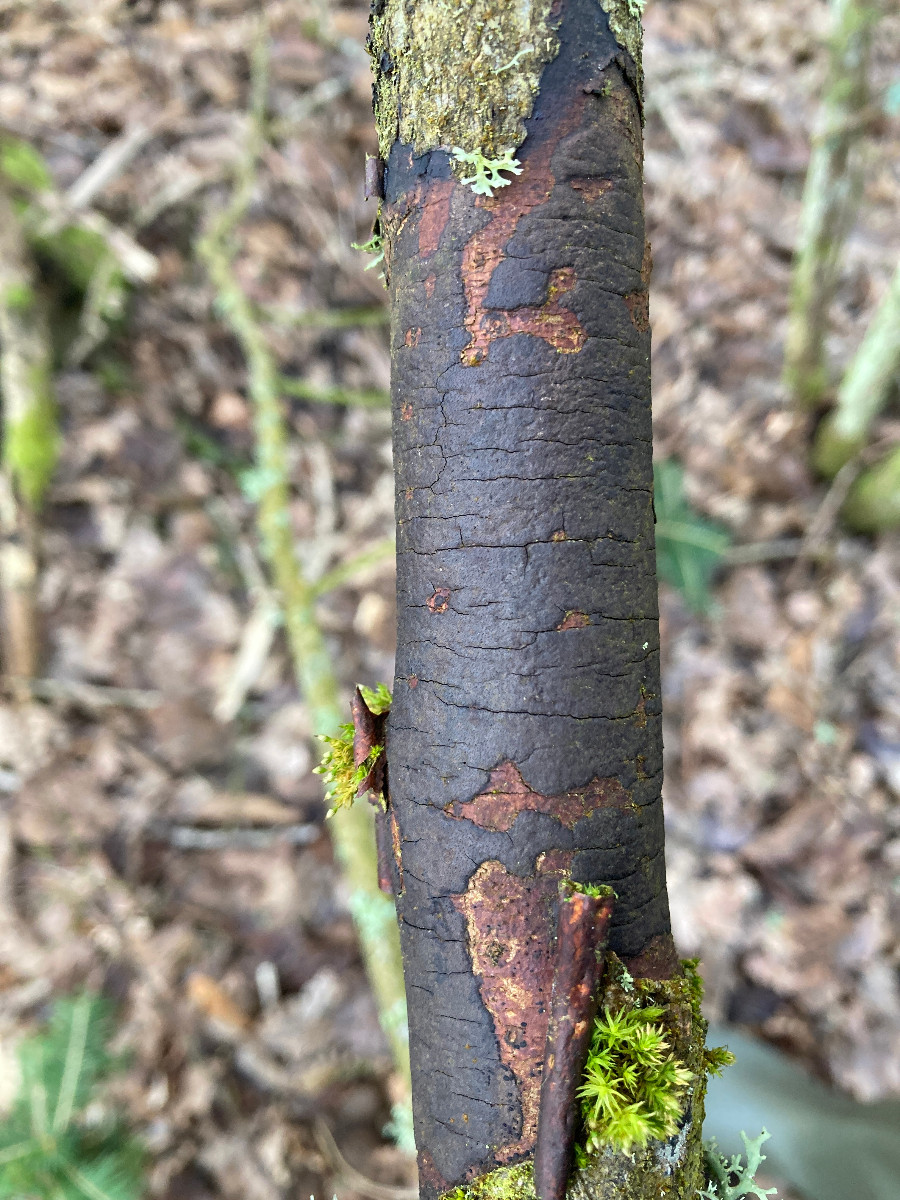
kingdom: Fungi
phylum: Ascomycota
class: Sordariomycetes
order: Xylariales
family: Diatrypaceae
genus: Diatrype
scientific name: Diatrype
